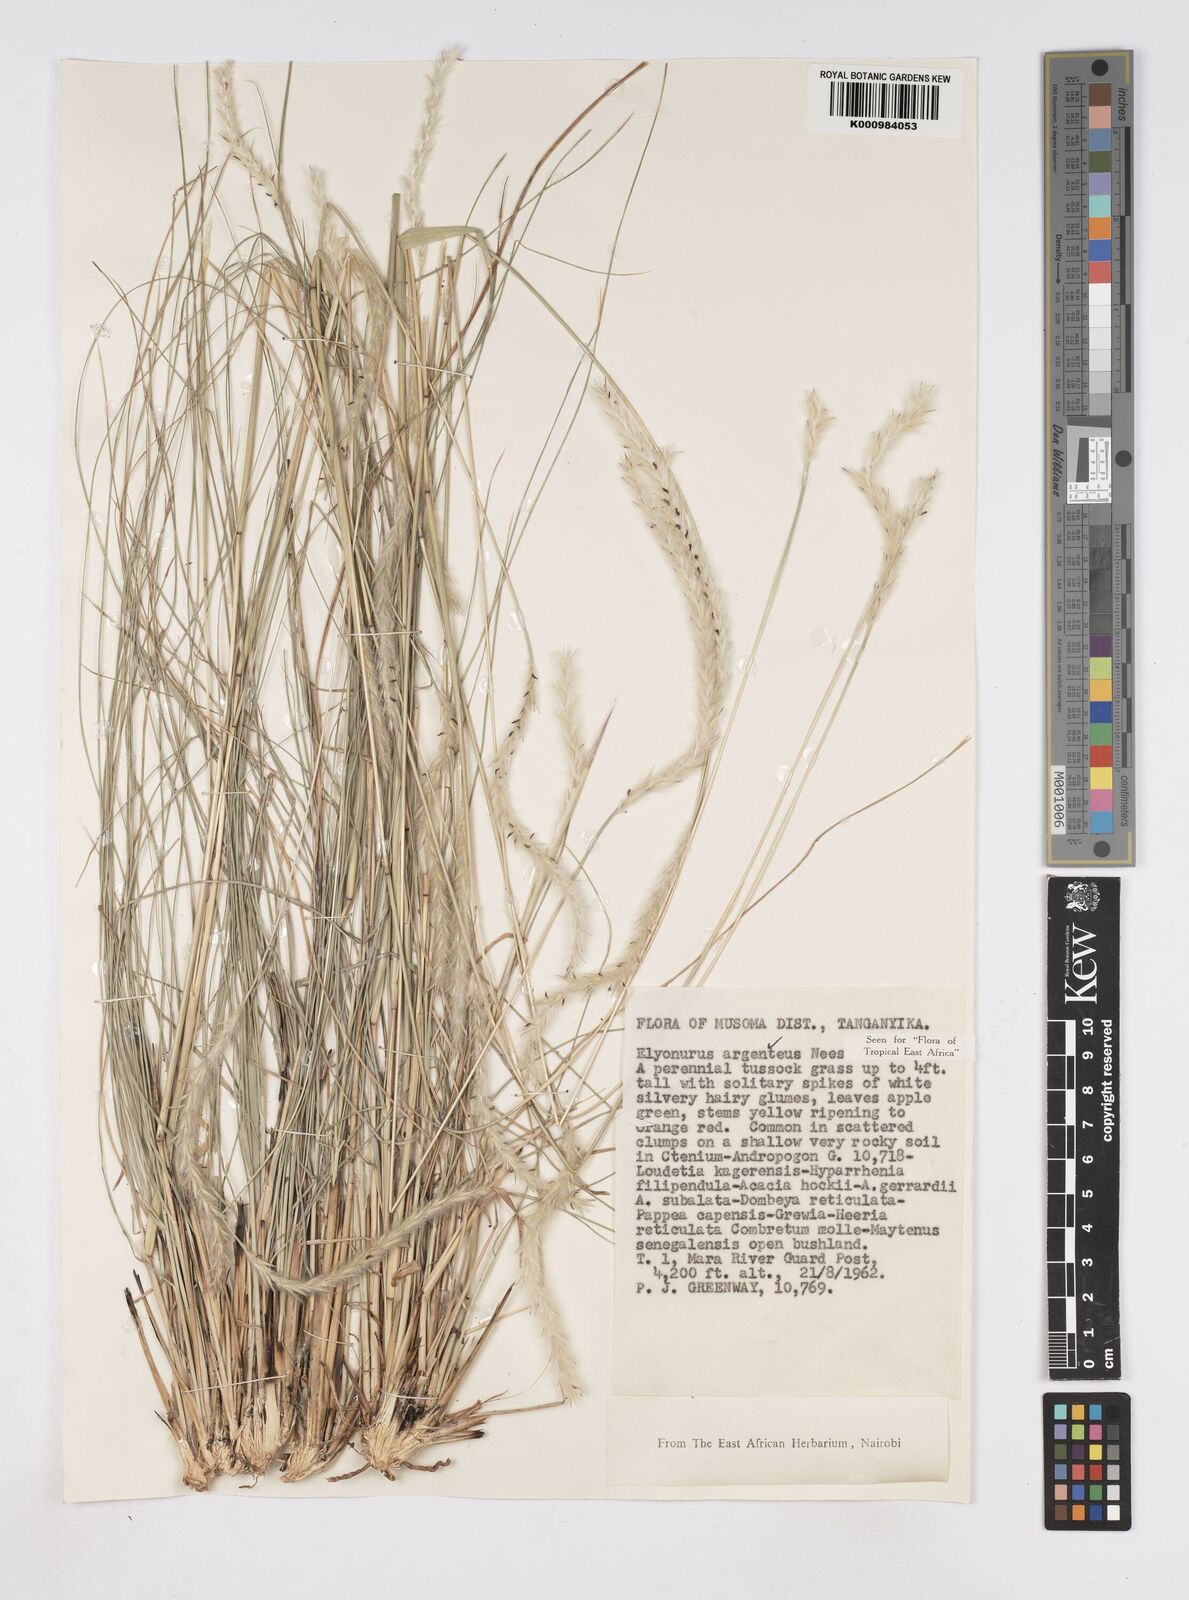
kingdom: Plantae
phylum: Tracheophyta
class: Liliopsida
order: Poales
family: Poaceae
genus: Elionurus
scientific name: Elionurus muticus
